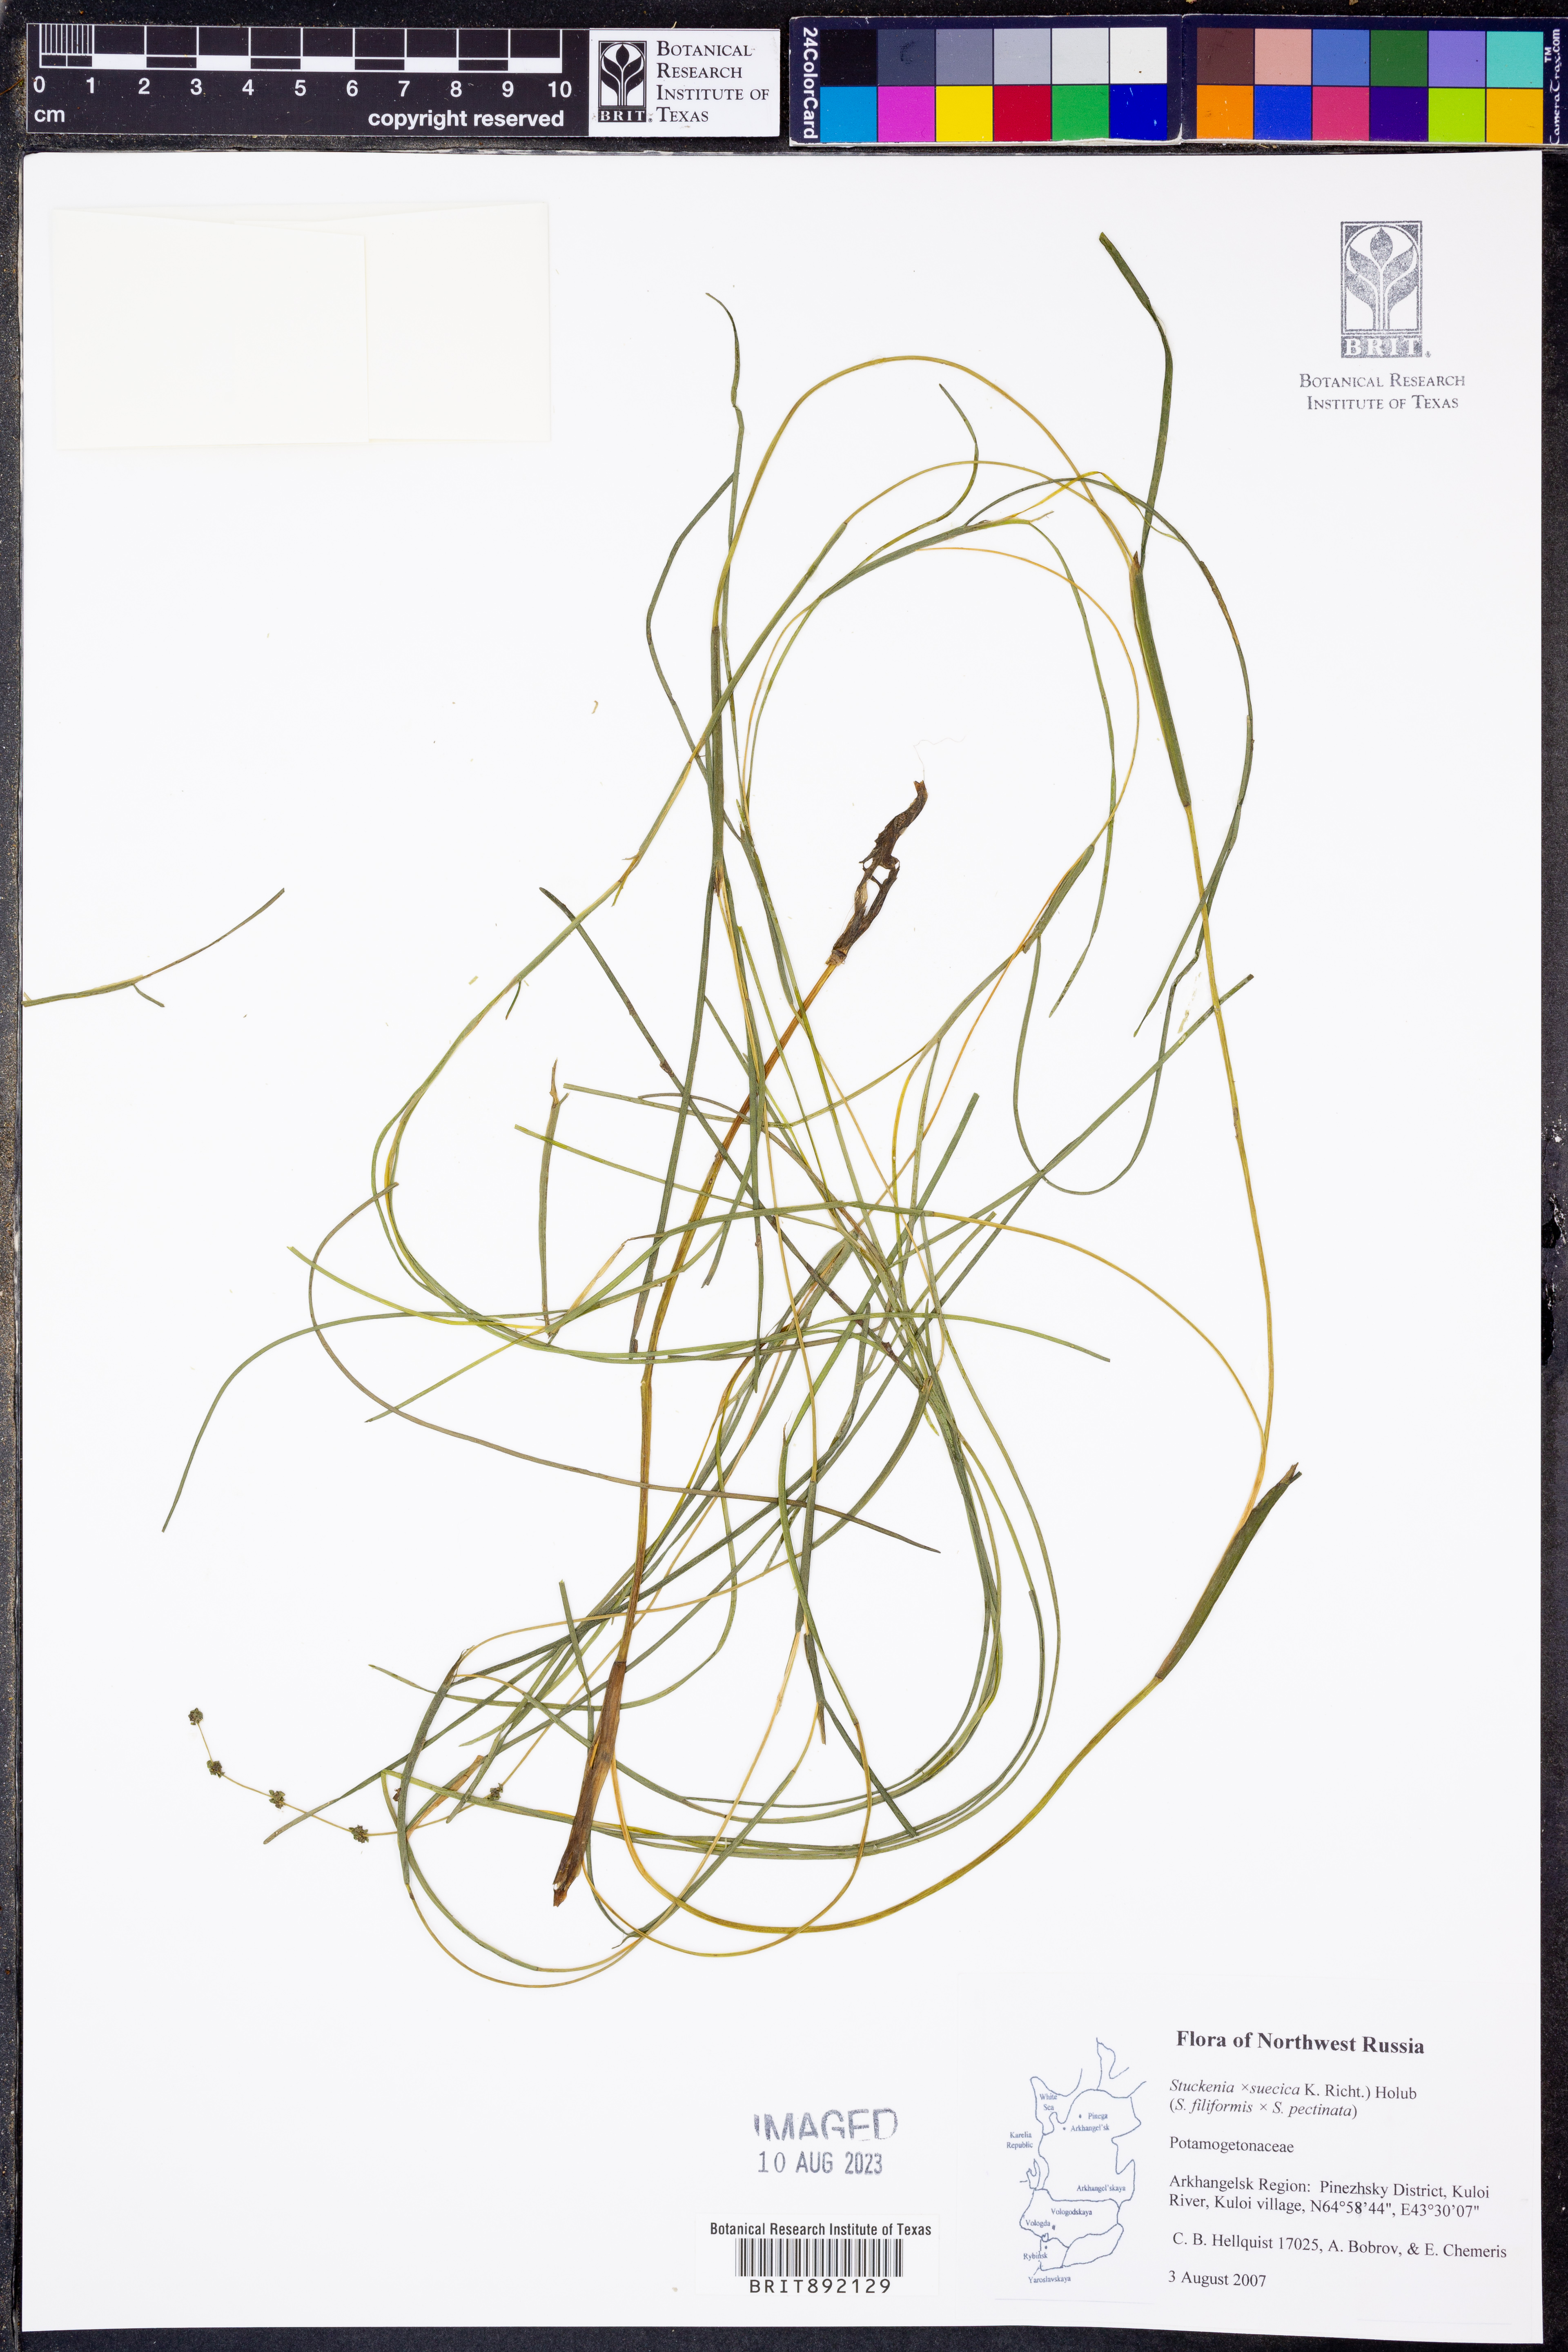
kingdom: Plantae
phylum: Tracheophyta
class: Liliopsida
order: Alismatales
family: Potamogetonaceae
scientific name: Potamogetonaceae
